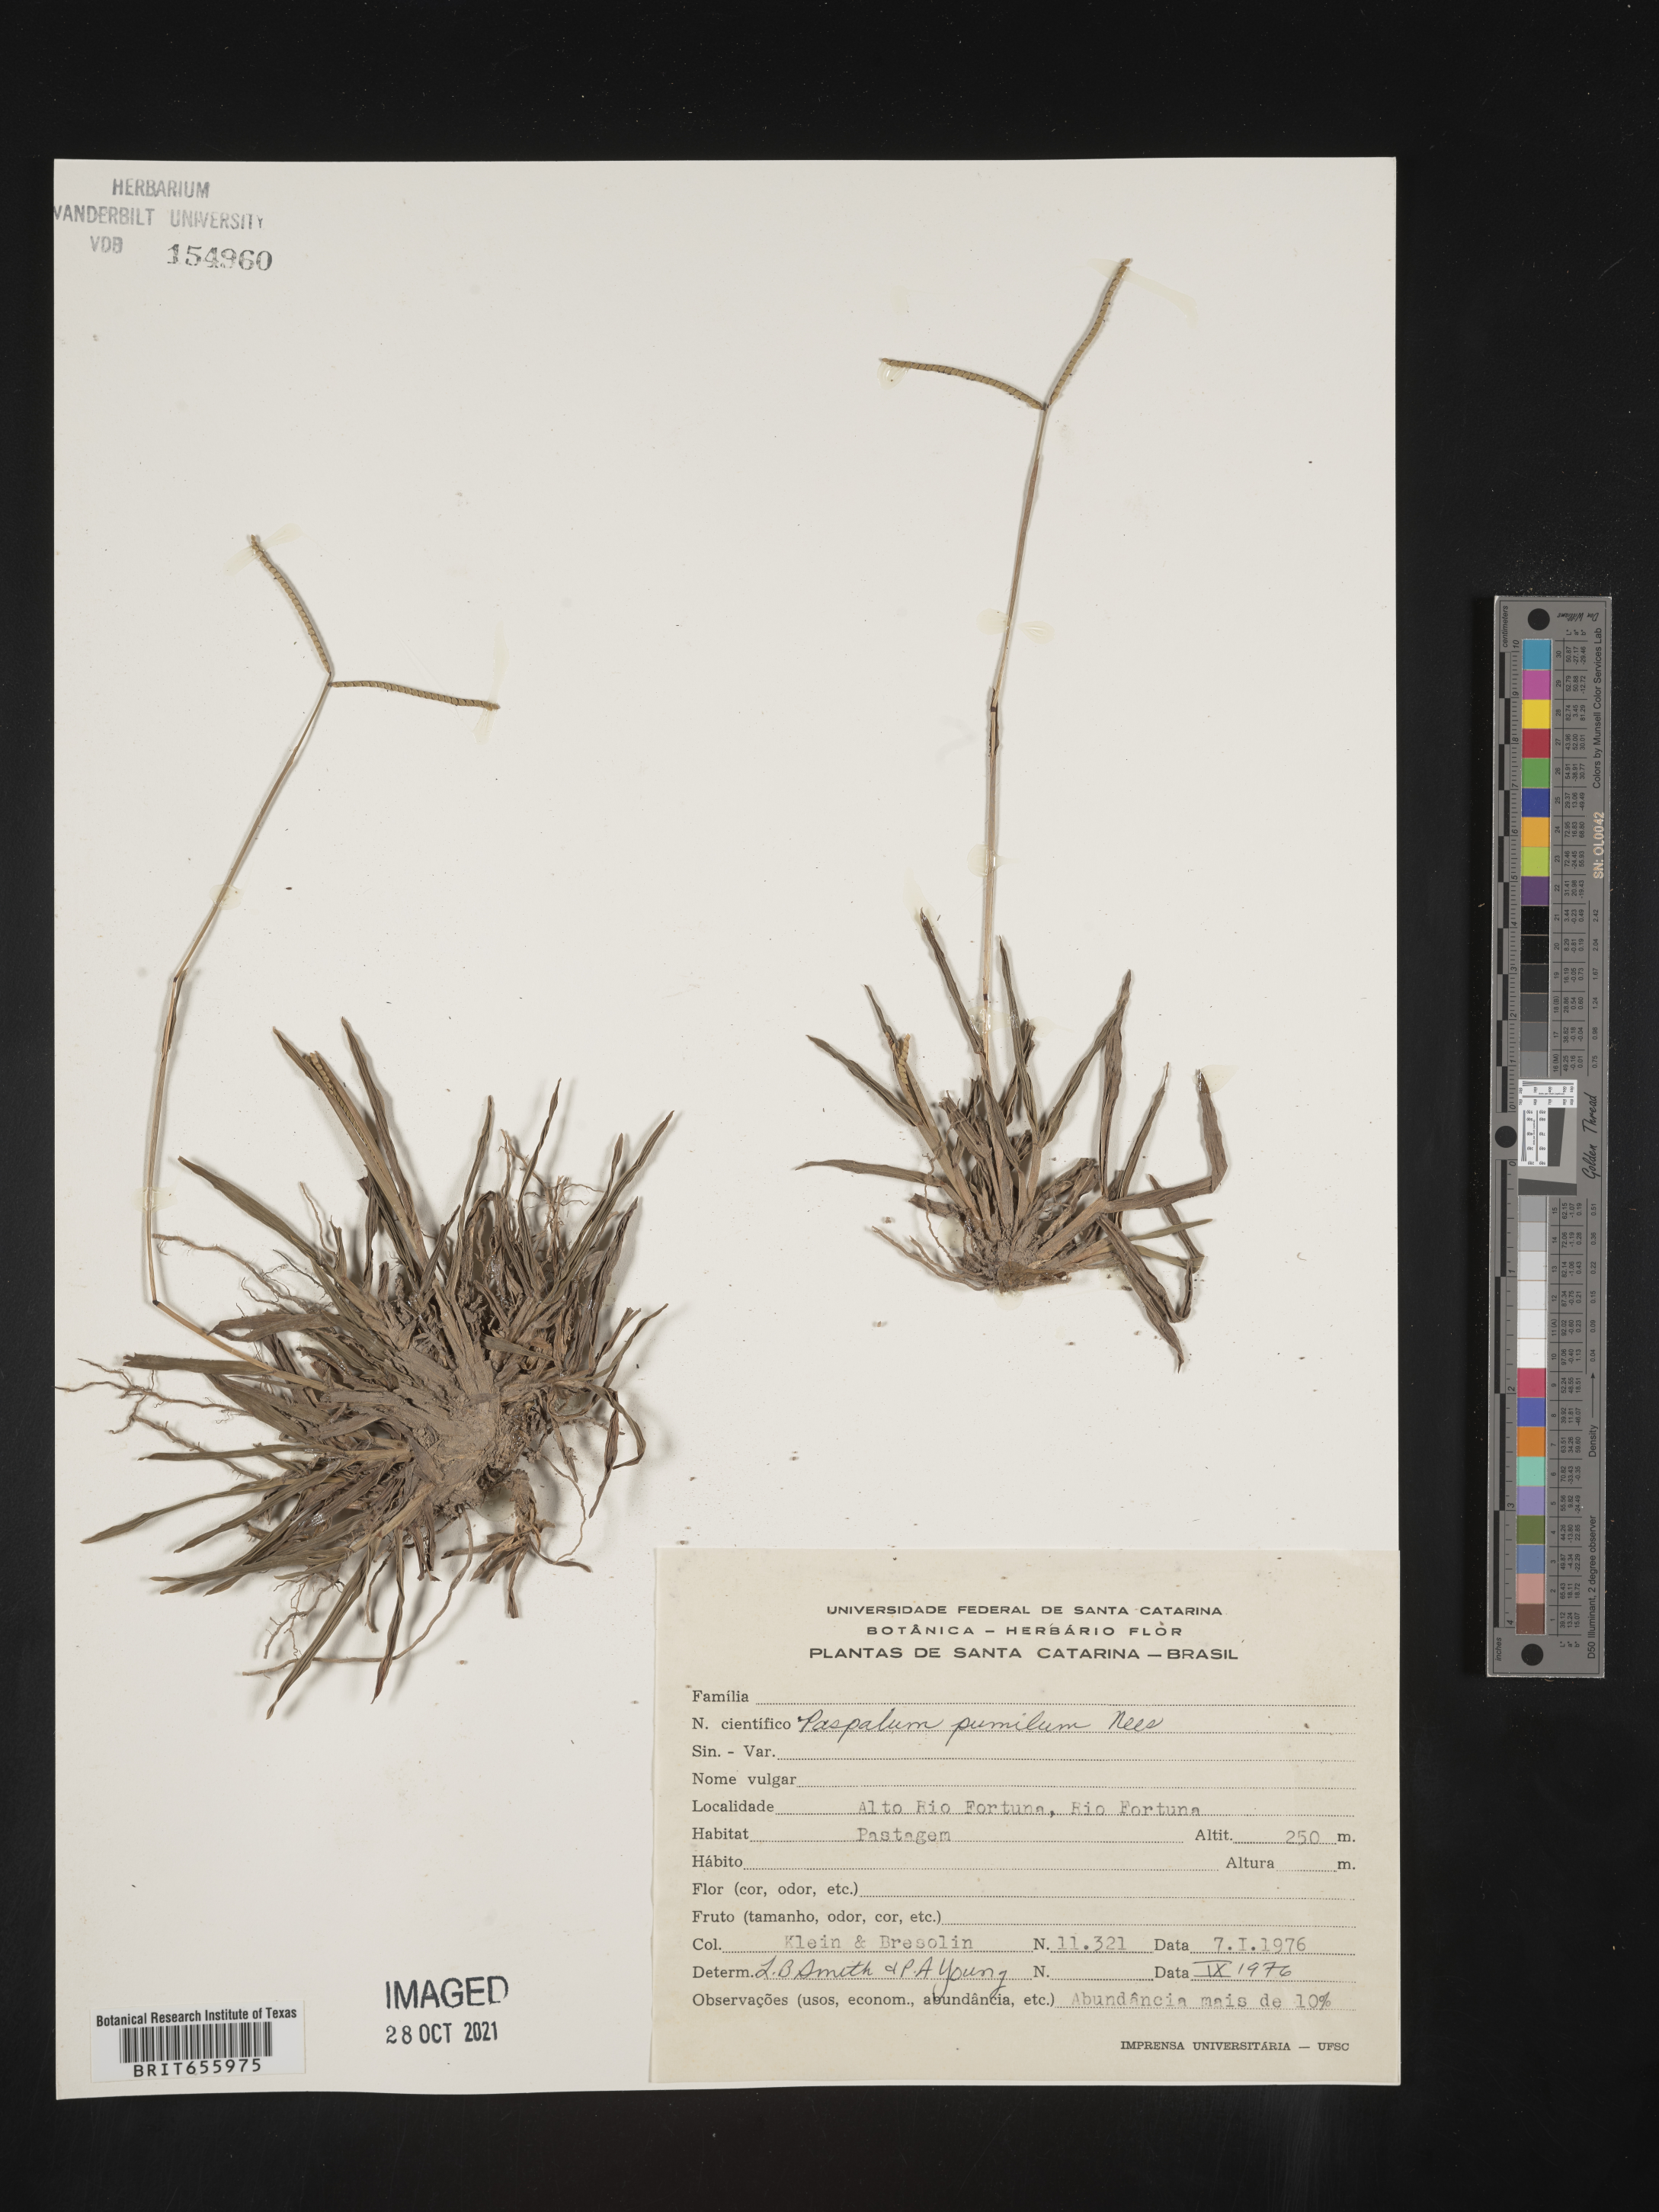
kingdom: Plantae
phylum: Tracheophyta
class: Liliopsida
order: Poales
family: Poaceae
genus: Paspalum
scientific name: Paspalum
